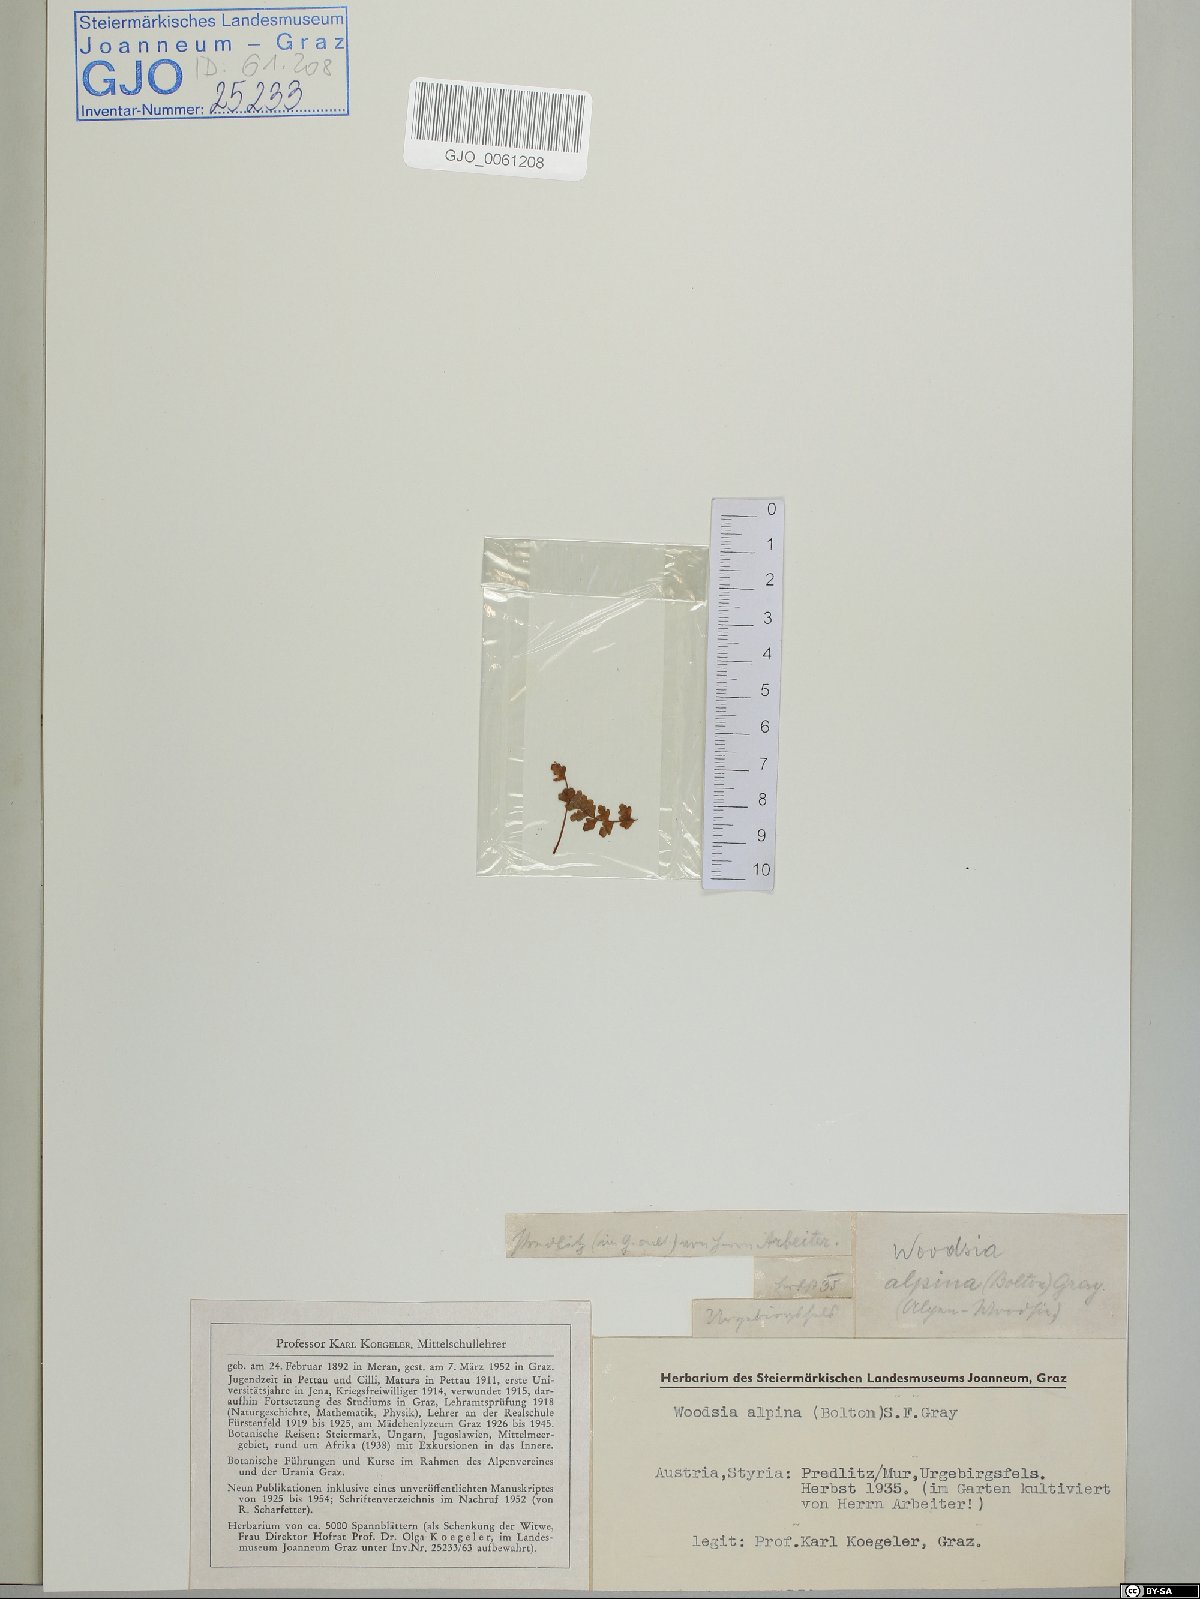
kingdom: Plantae
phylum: Tracheophyta
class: Polypodiopsida
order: Polypodiales
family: Woodsiaceae
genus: Woodsia
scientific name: Woodsia alpina
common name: Alpine woodsia
